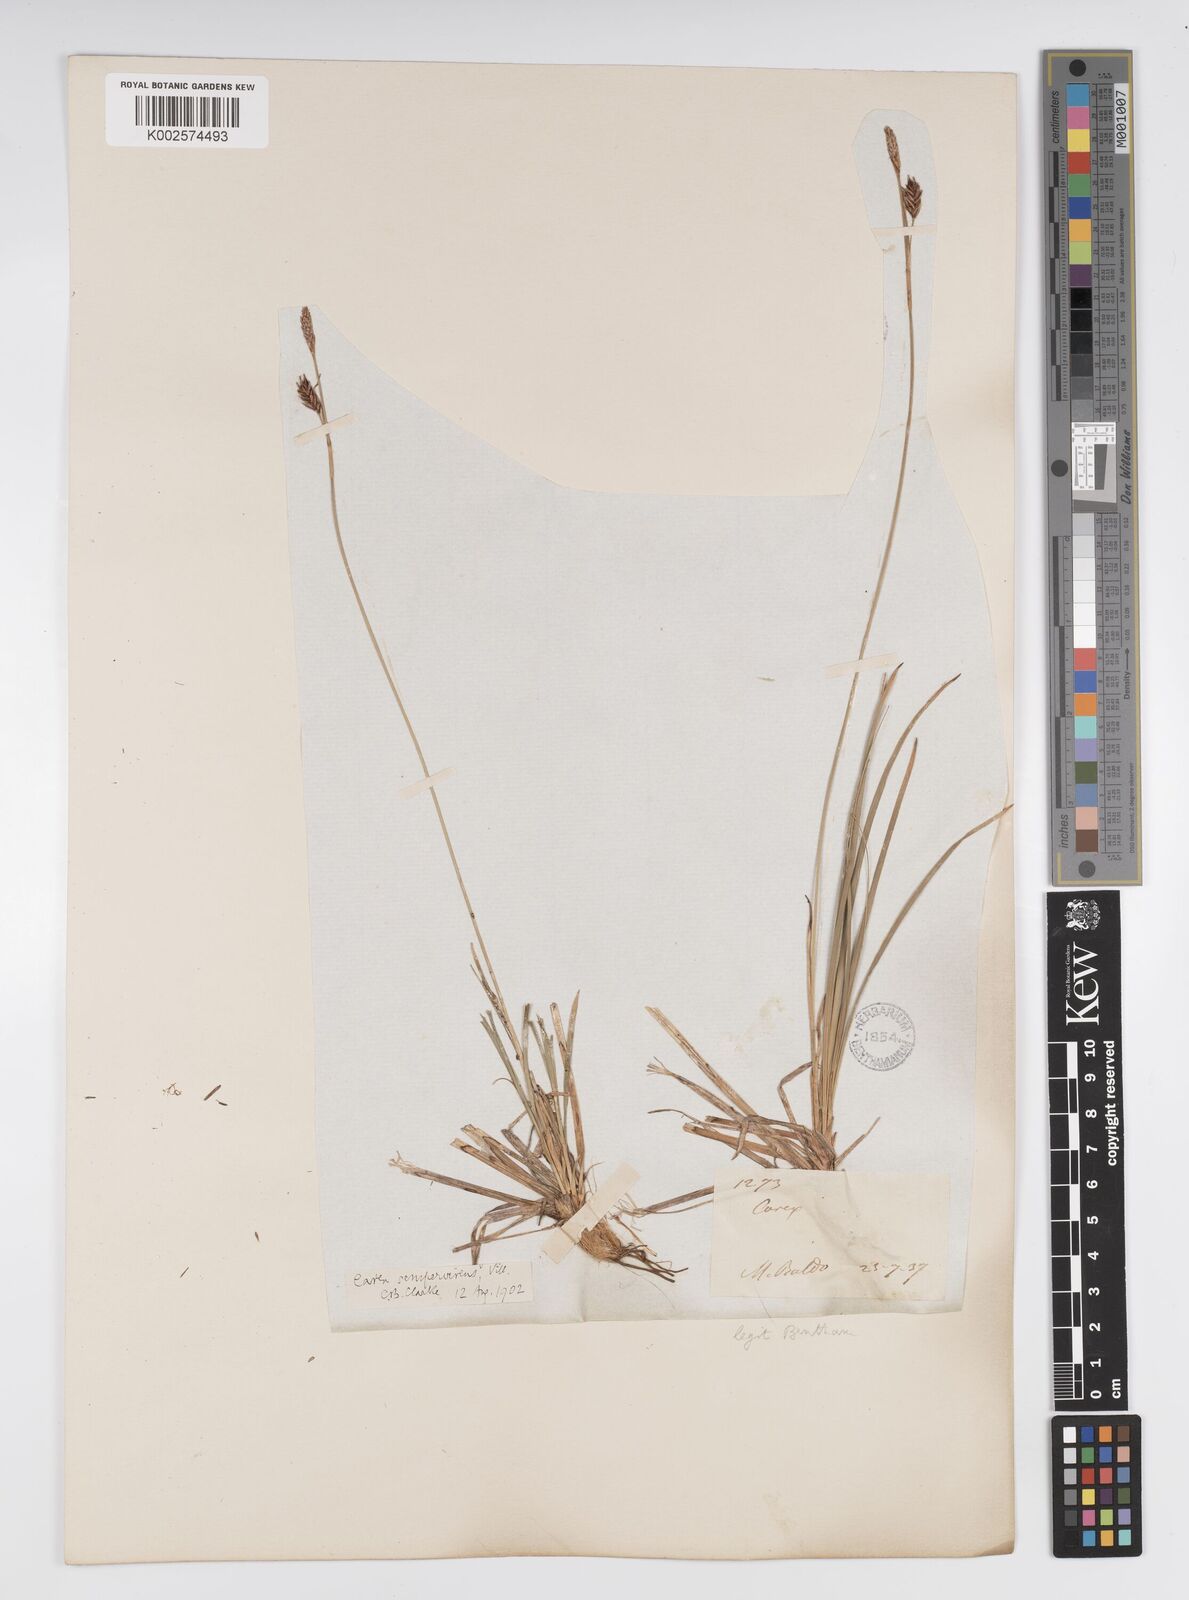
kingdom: Plantae
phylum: Tracheophyta
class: Liliopsida
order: Poales
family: Cyperaceae
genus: Carex
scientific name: Carex sempervirens
